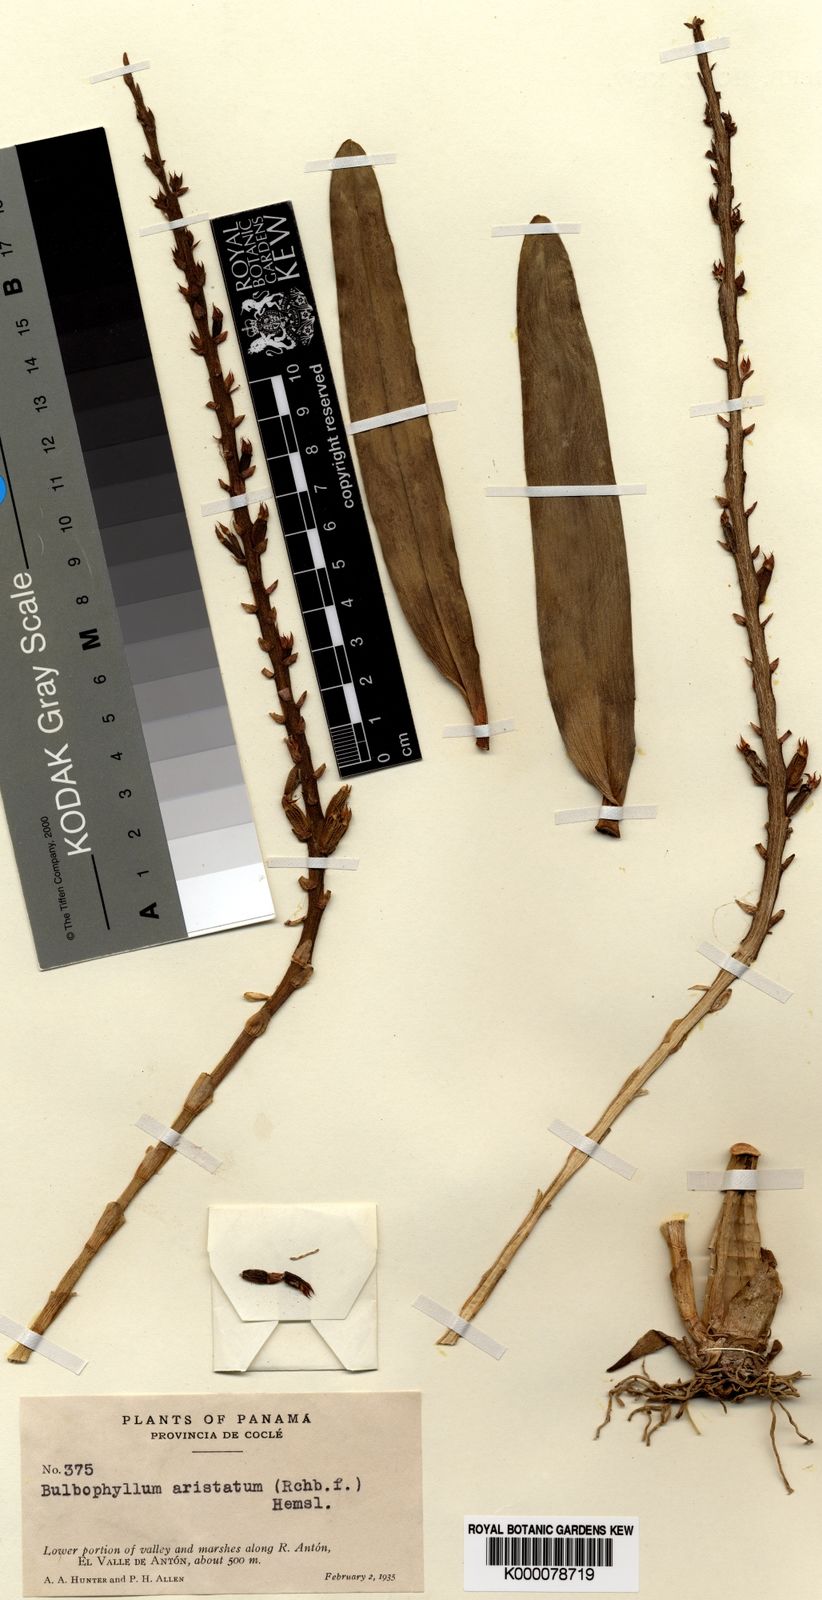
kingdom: Plantae
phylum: Tracheophyta
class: Liliopsida
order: Asparagales
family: Orchidaceae
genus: Bulbophyllum
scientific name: Bulbophyllum aristatum
